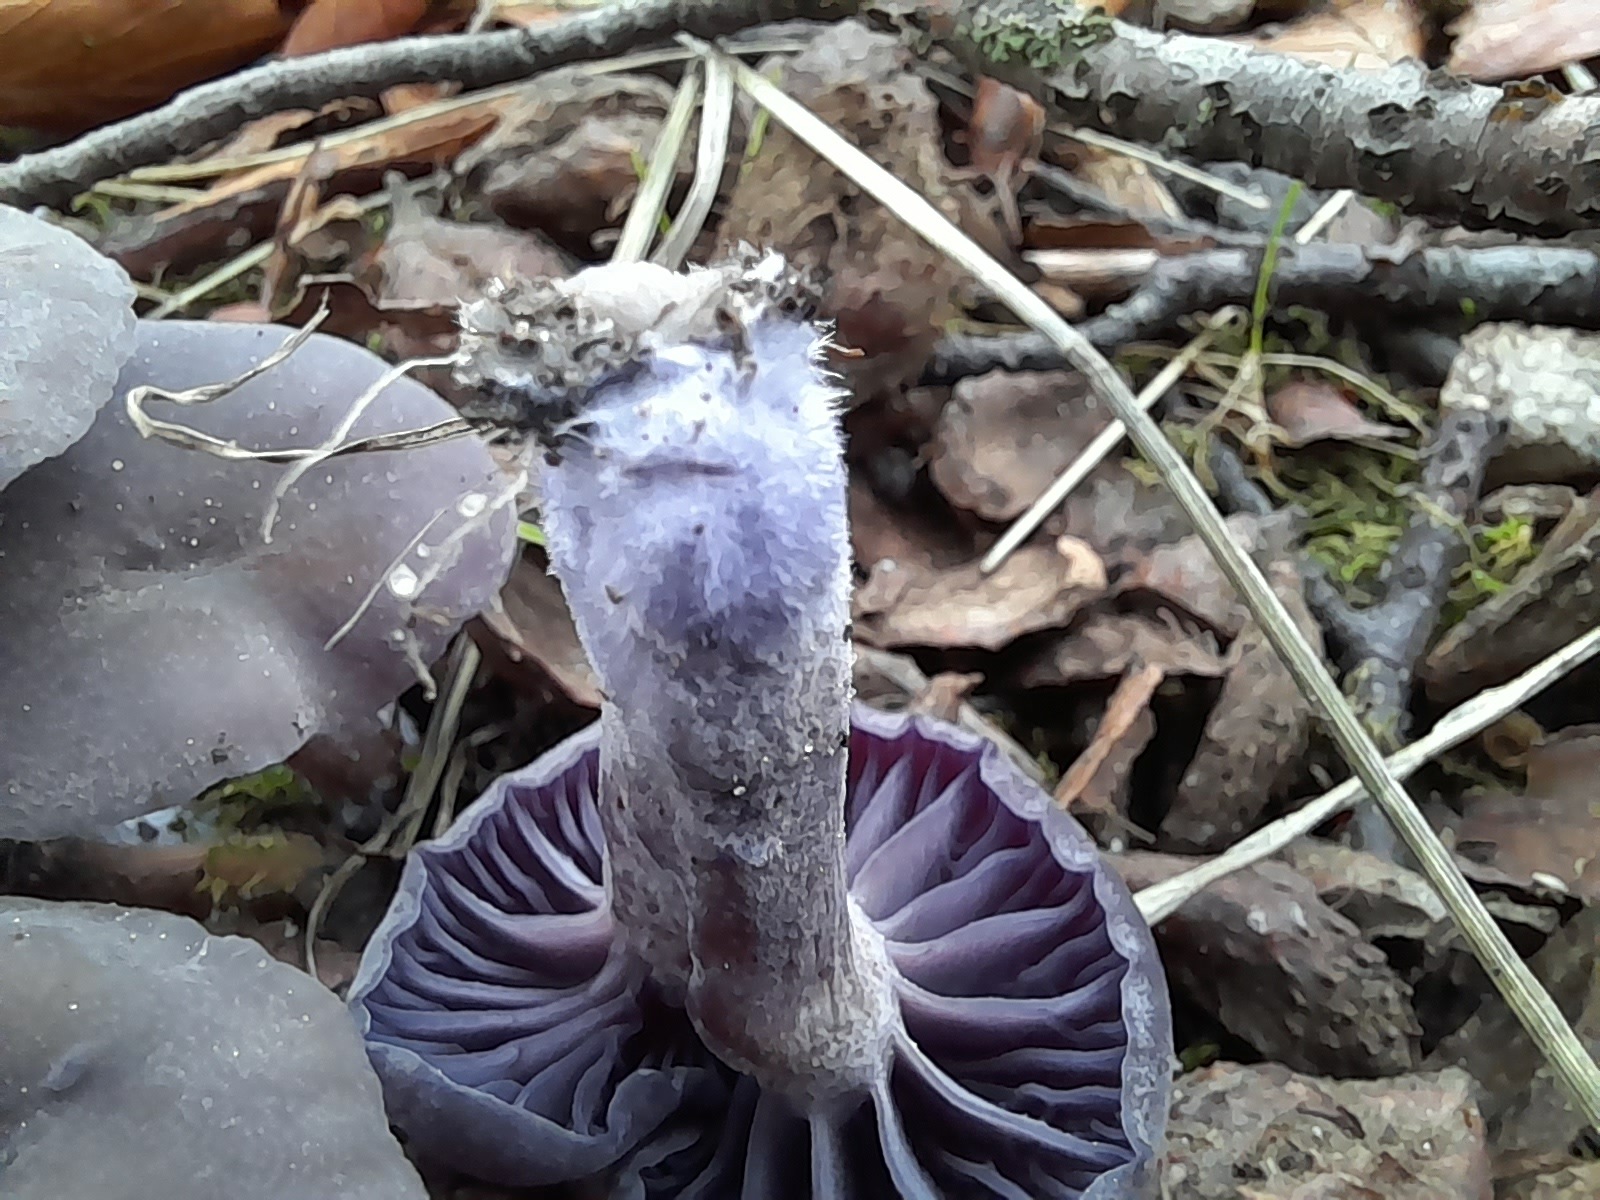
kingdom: Fungi
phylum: Basidiomycota
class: Agaricomycetes
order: Agaricales
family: Hydnangiaceae
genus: Laccaria
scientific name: Laccaria amethystina
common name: violet ametysthat
